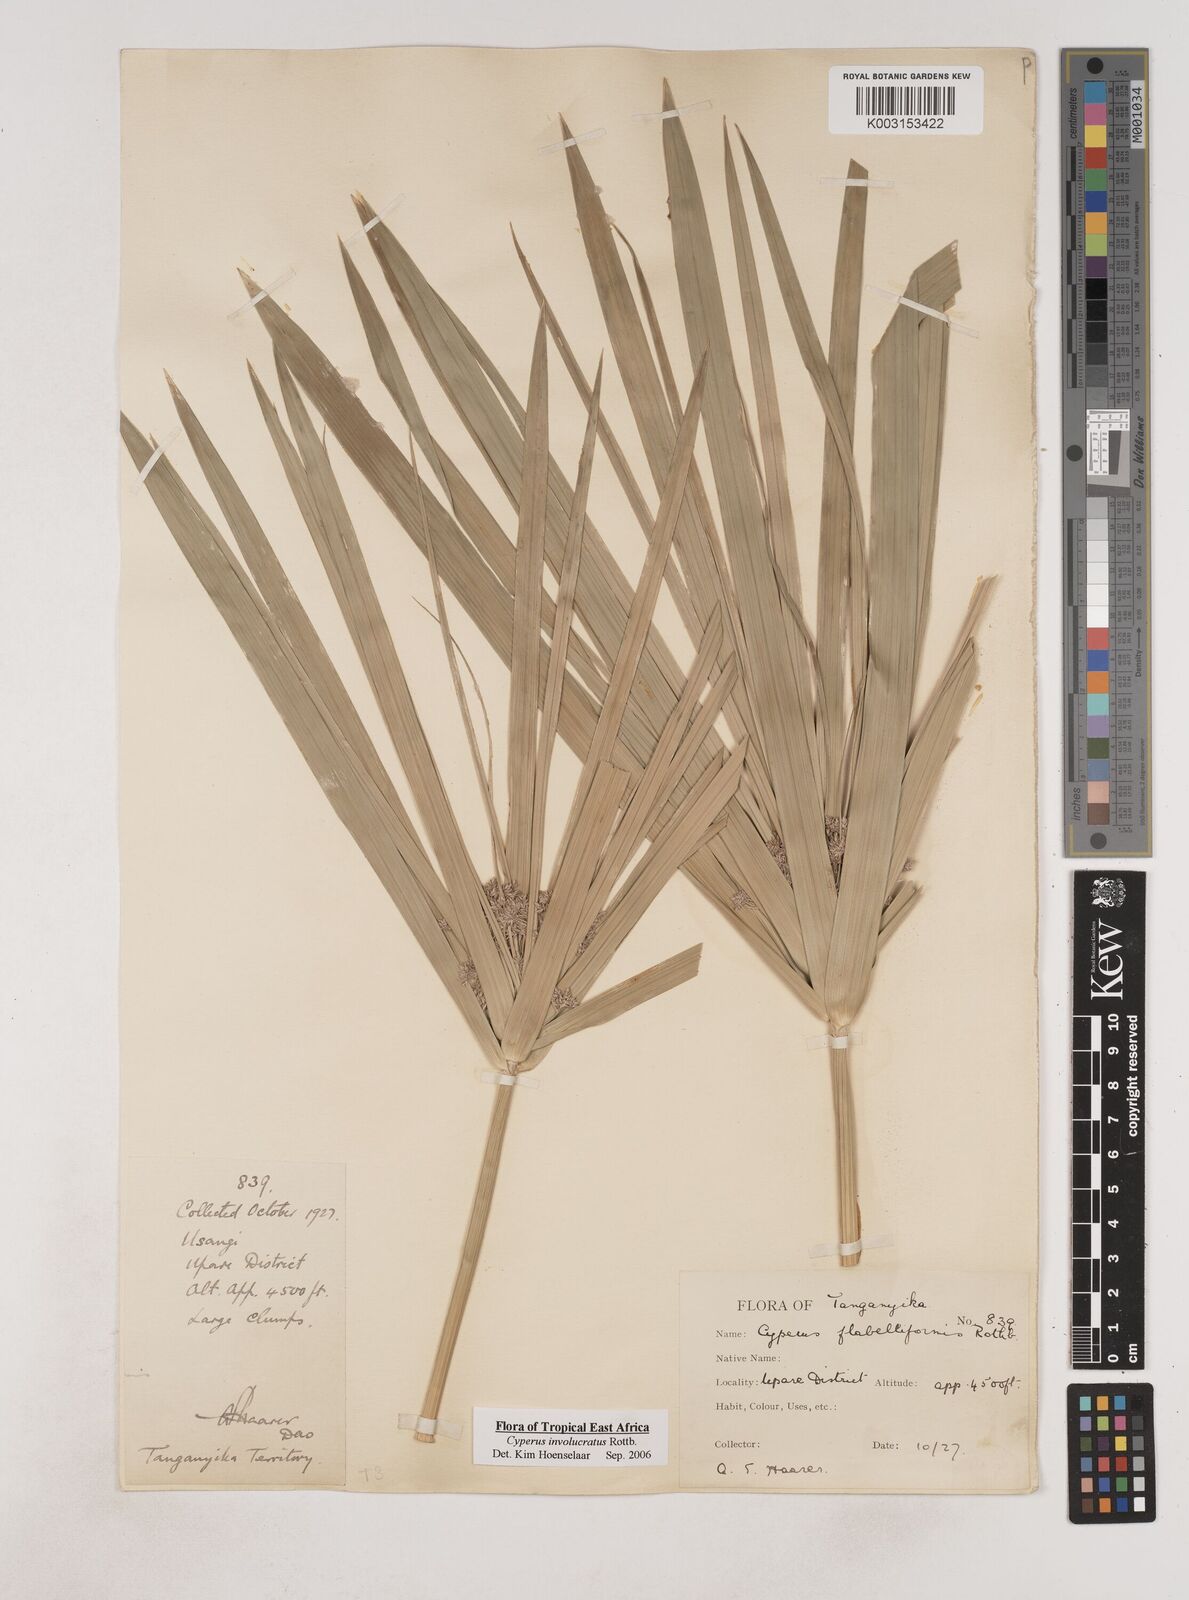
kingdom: Plantae
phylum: Tracheophyta
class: Liliopsida
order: Poales
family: Cyperaceae
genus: Cyperus
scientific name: Cyperus alternifolius
